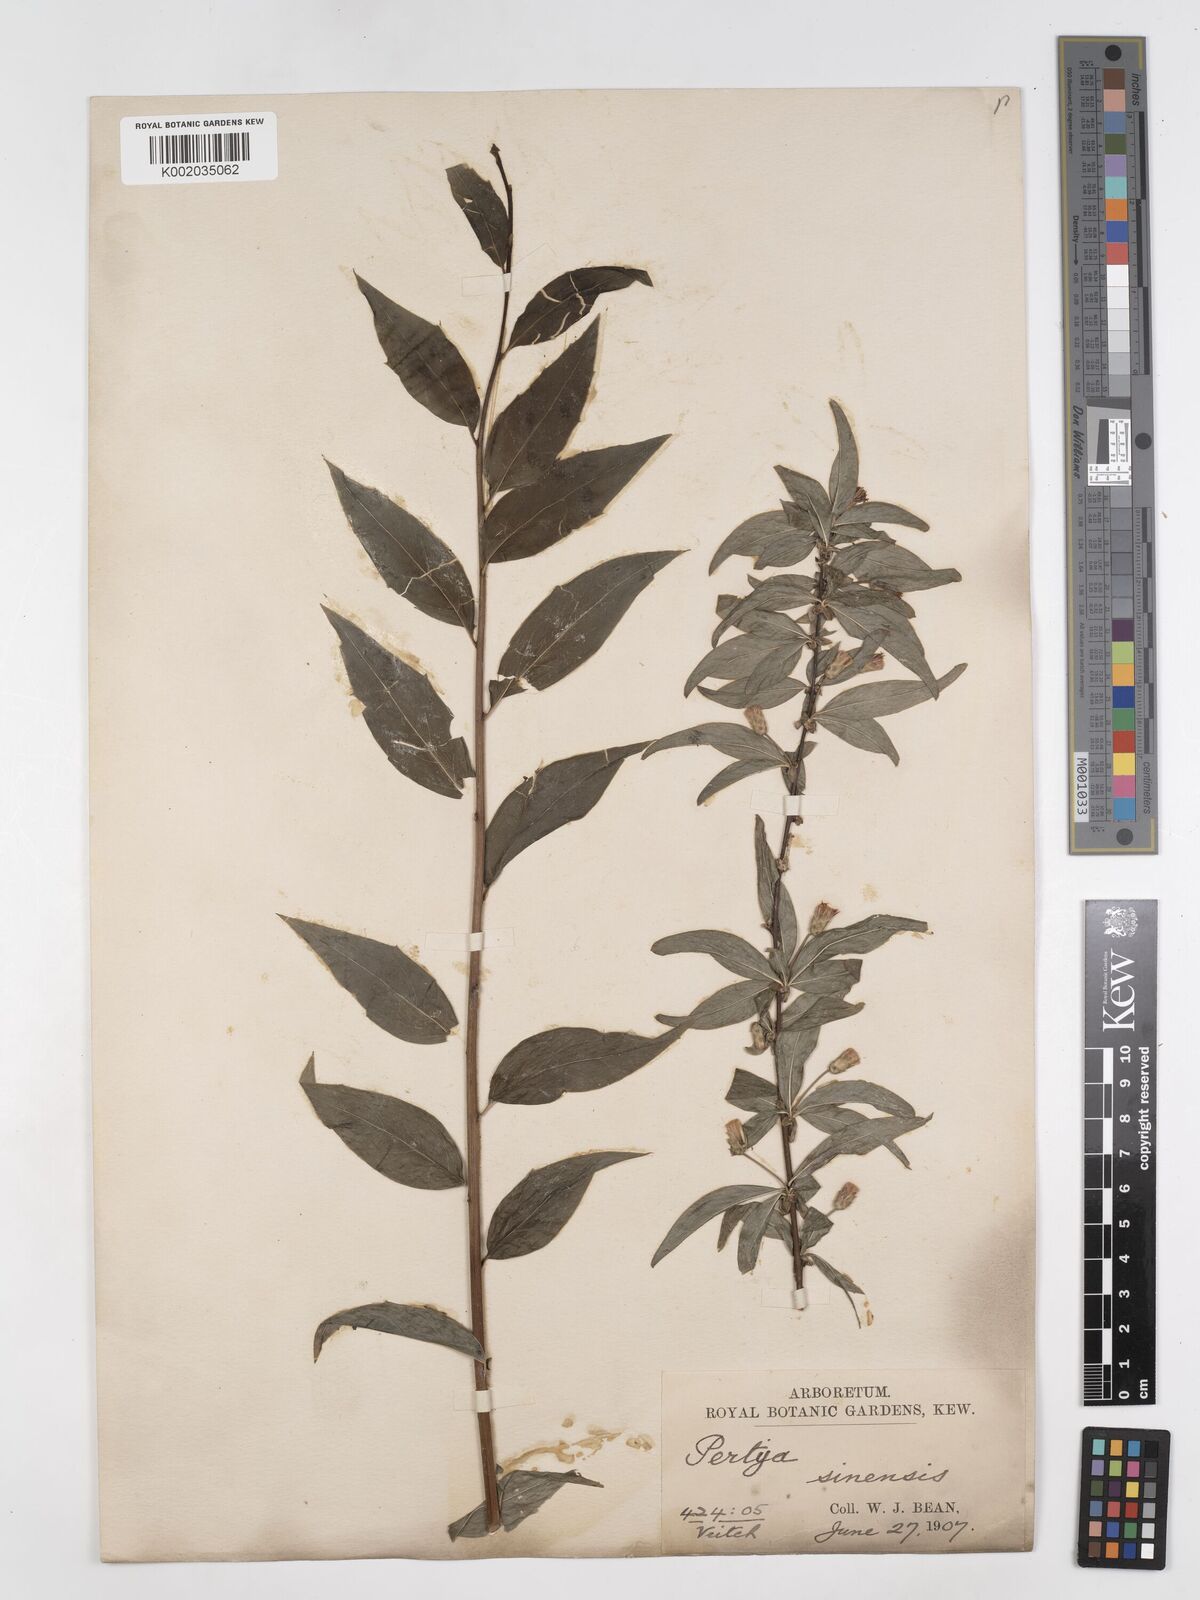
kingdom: Plantae
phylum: Tracheophyta
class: Magnoliopsida
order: Asterales
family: Asteraceae
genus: Pertya
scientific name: Pertya sinensis
